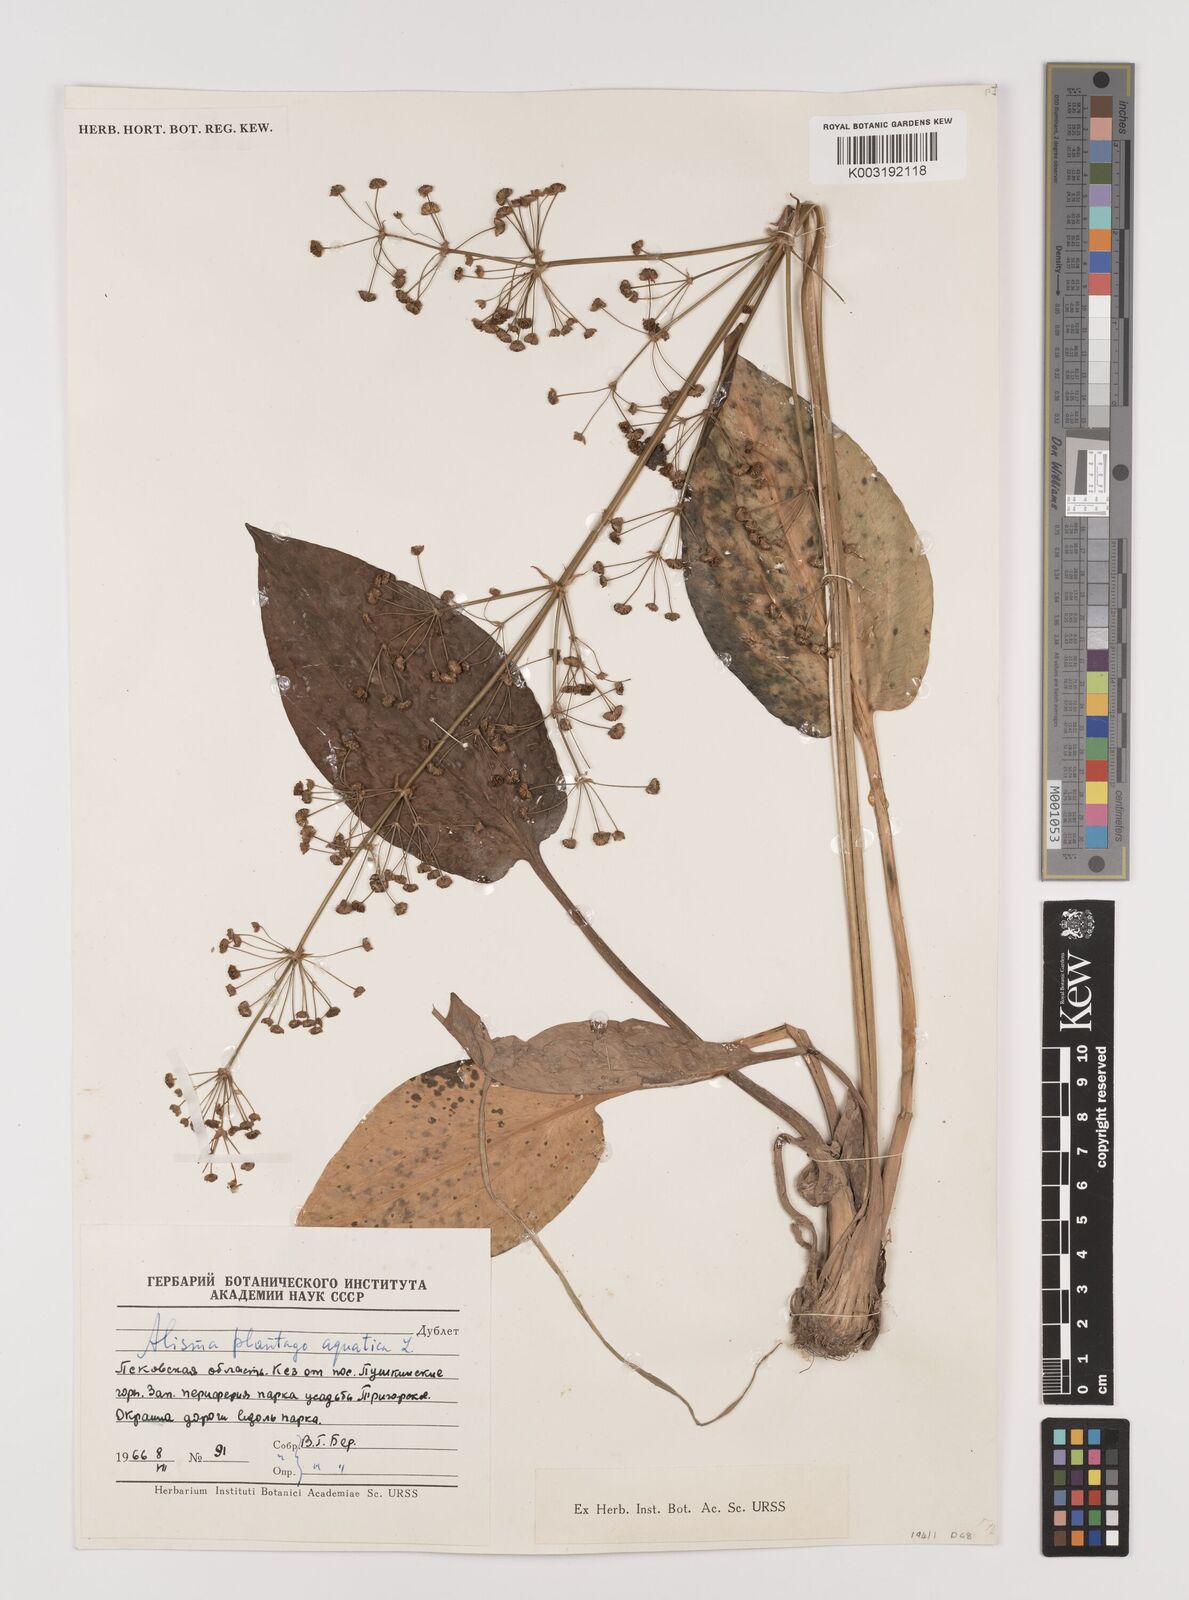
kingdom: Plantae
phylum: Tracheophyta
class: Liliopsida
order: Alismatales
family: Alismataceae
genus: Alisma
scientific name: Alisma plantago-aquatica
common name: Water-plantain
